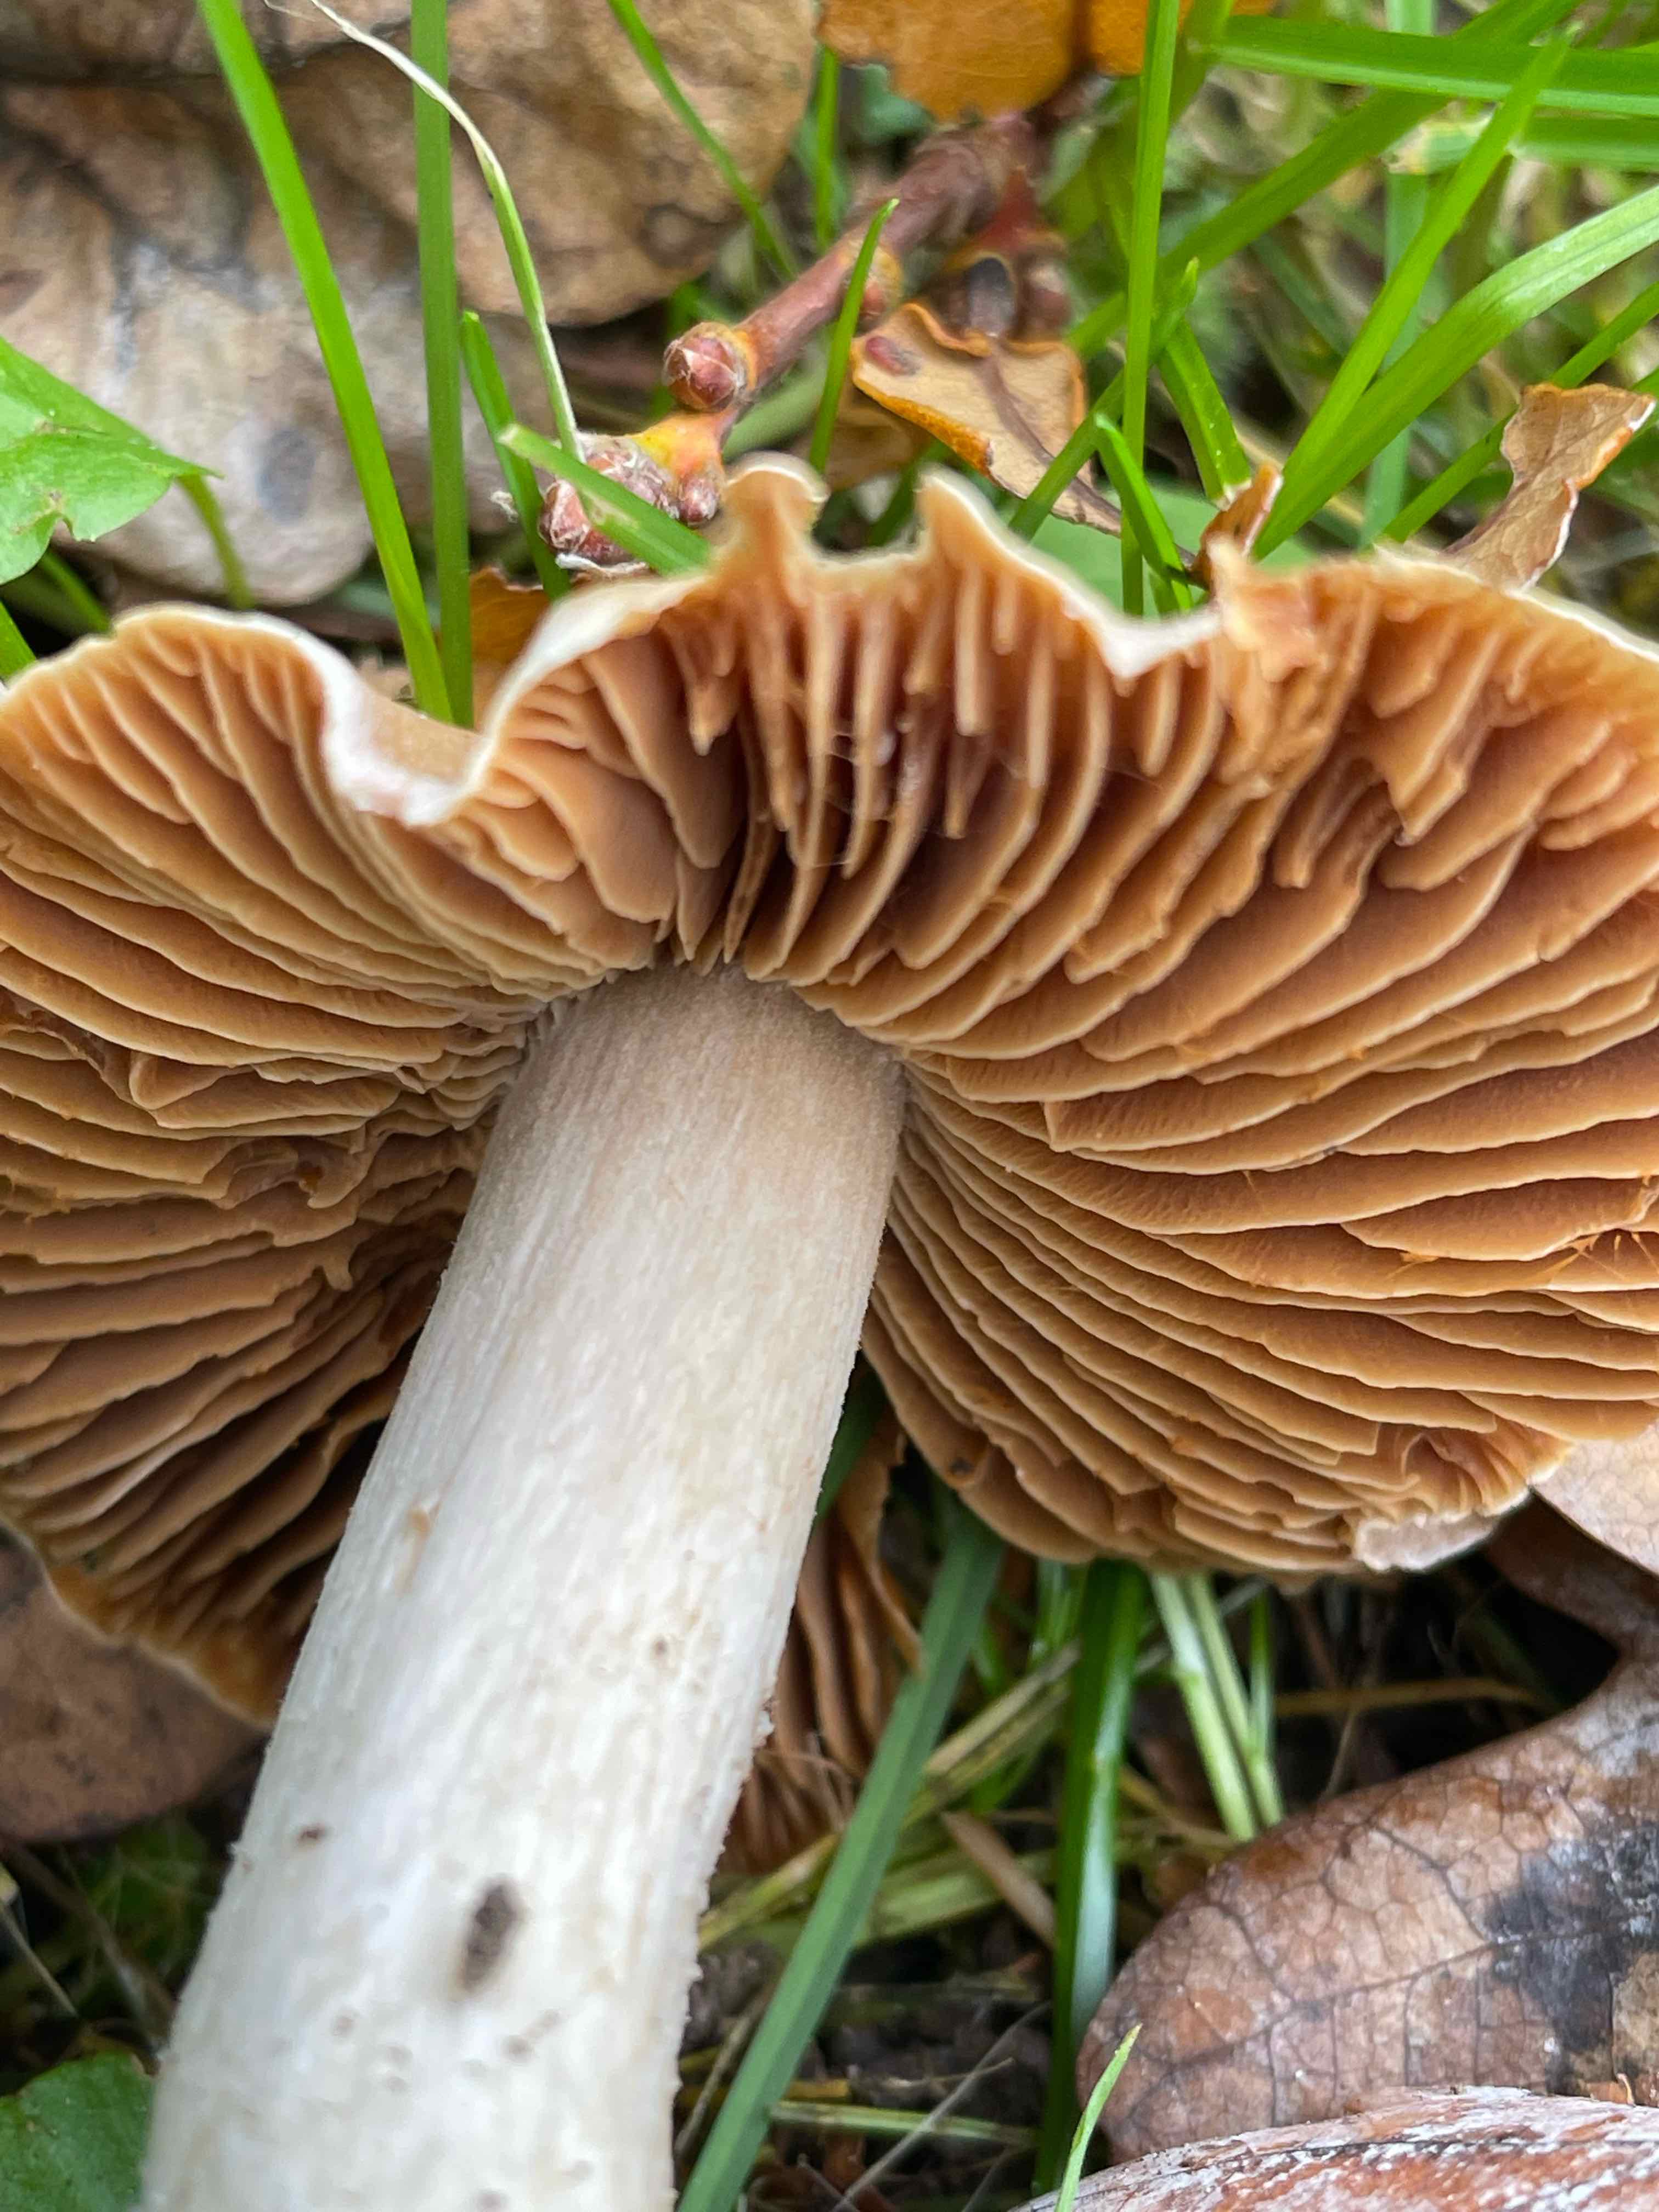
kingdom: Fungi
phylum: Basidiomycota
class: Agaricomycetes
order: Agaricales
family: Cortinariaceae
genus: Cortinarius
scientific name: Cortinarius
